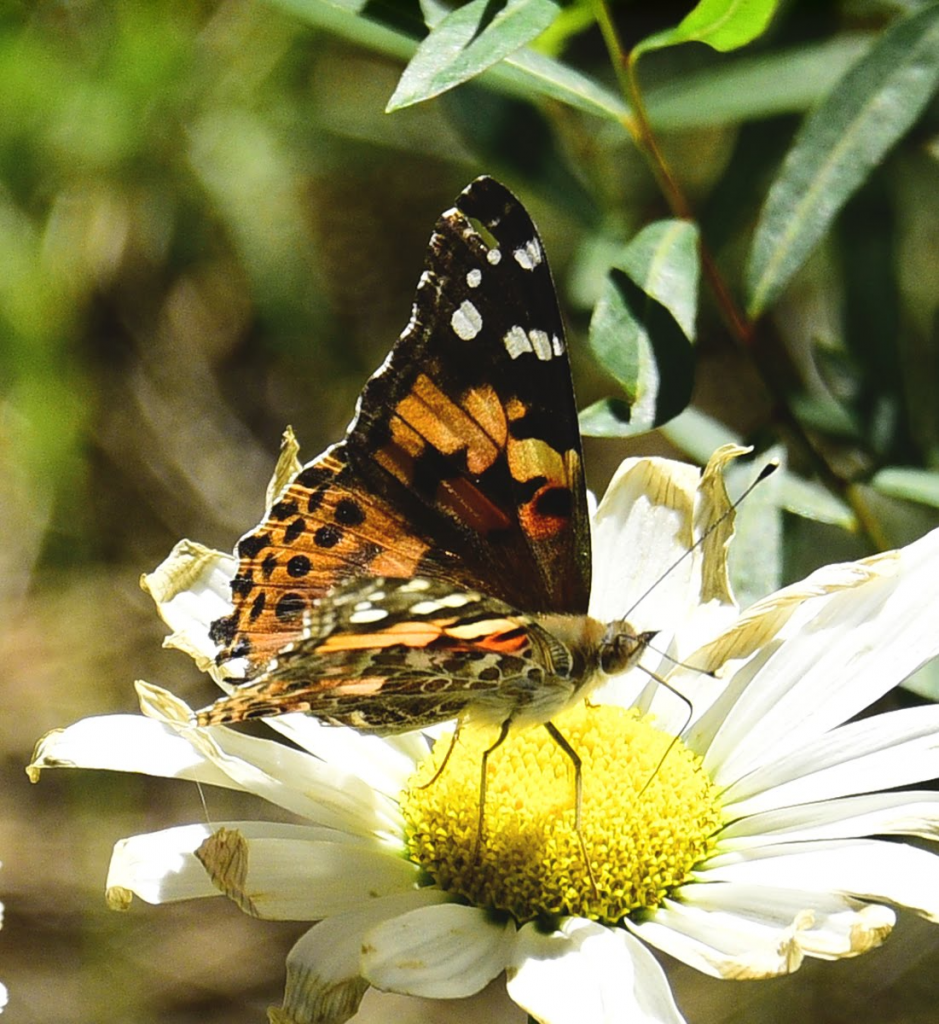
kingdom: Animalia
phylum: Arthropoda
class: Insecta
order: Lepidoptera
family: Nymphalidae
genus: Vanessa
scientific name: Vanessa cardui
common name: Painted Lady
